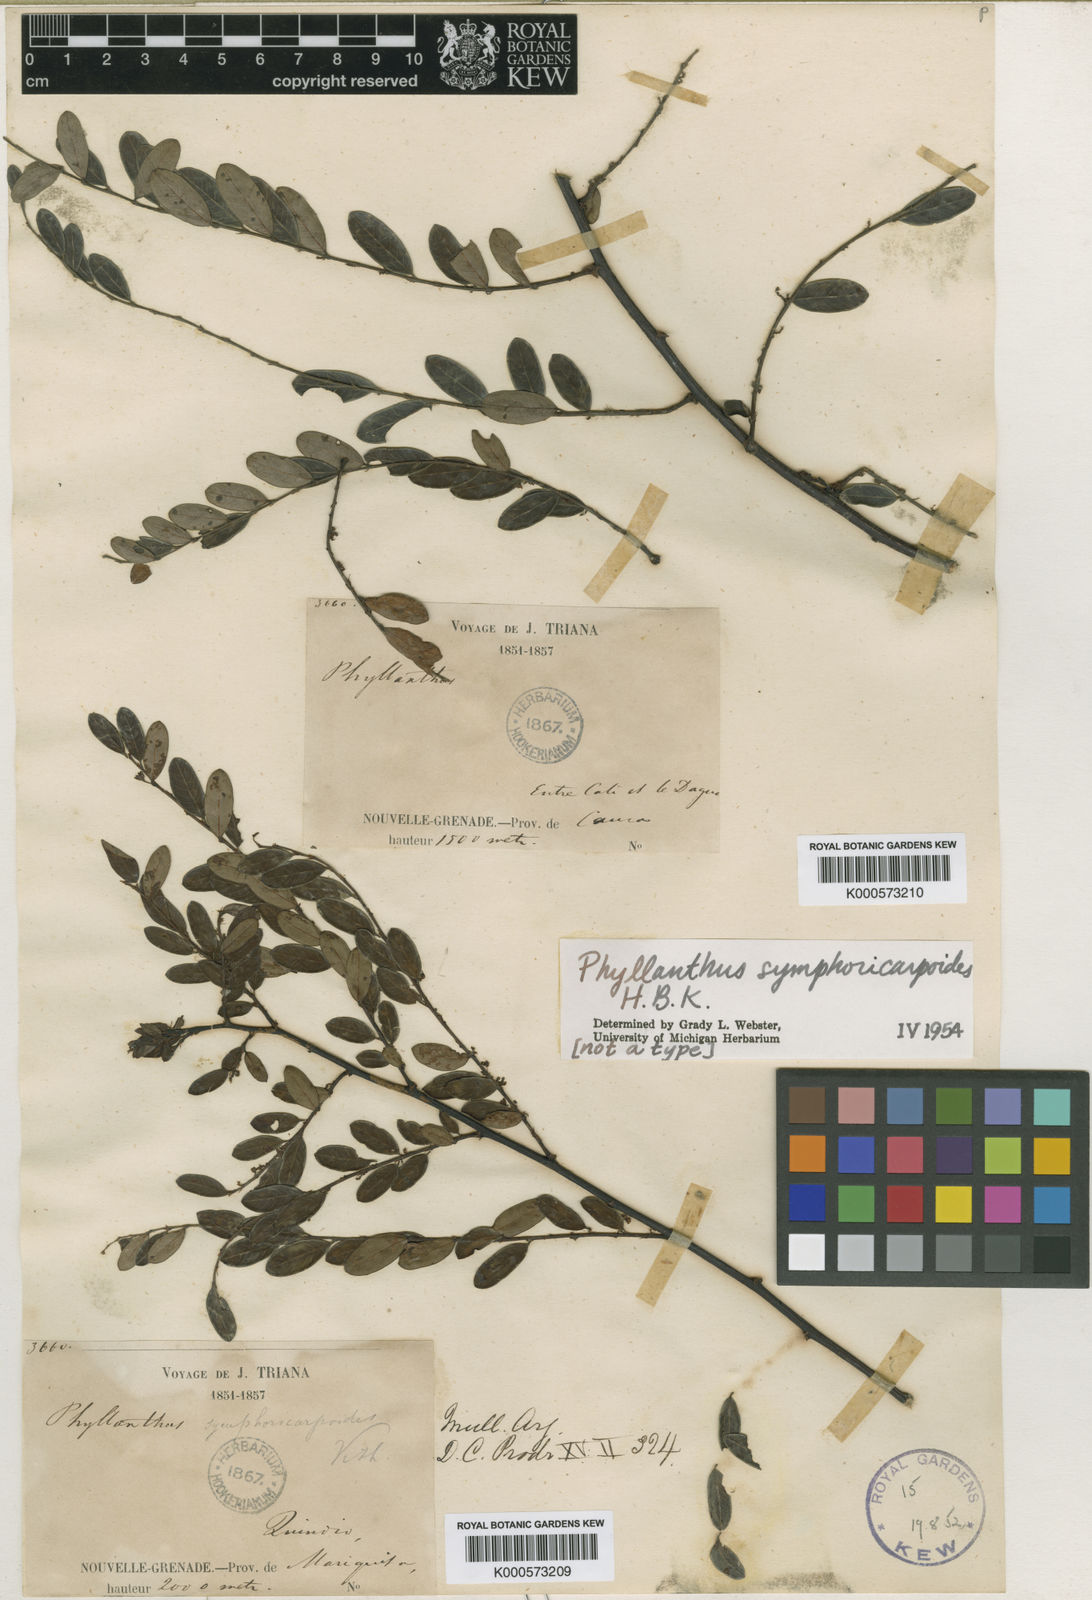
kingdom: Plantae
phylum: Tracheophyta
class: Magnoliopsida
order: Malpighiales
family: Phyllanthaceae
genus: Phyllanthus
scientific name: Phyllanthus symphoricarpoides
